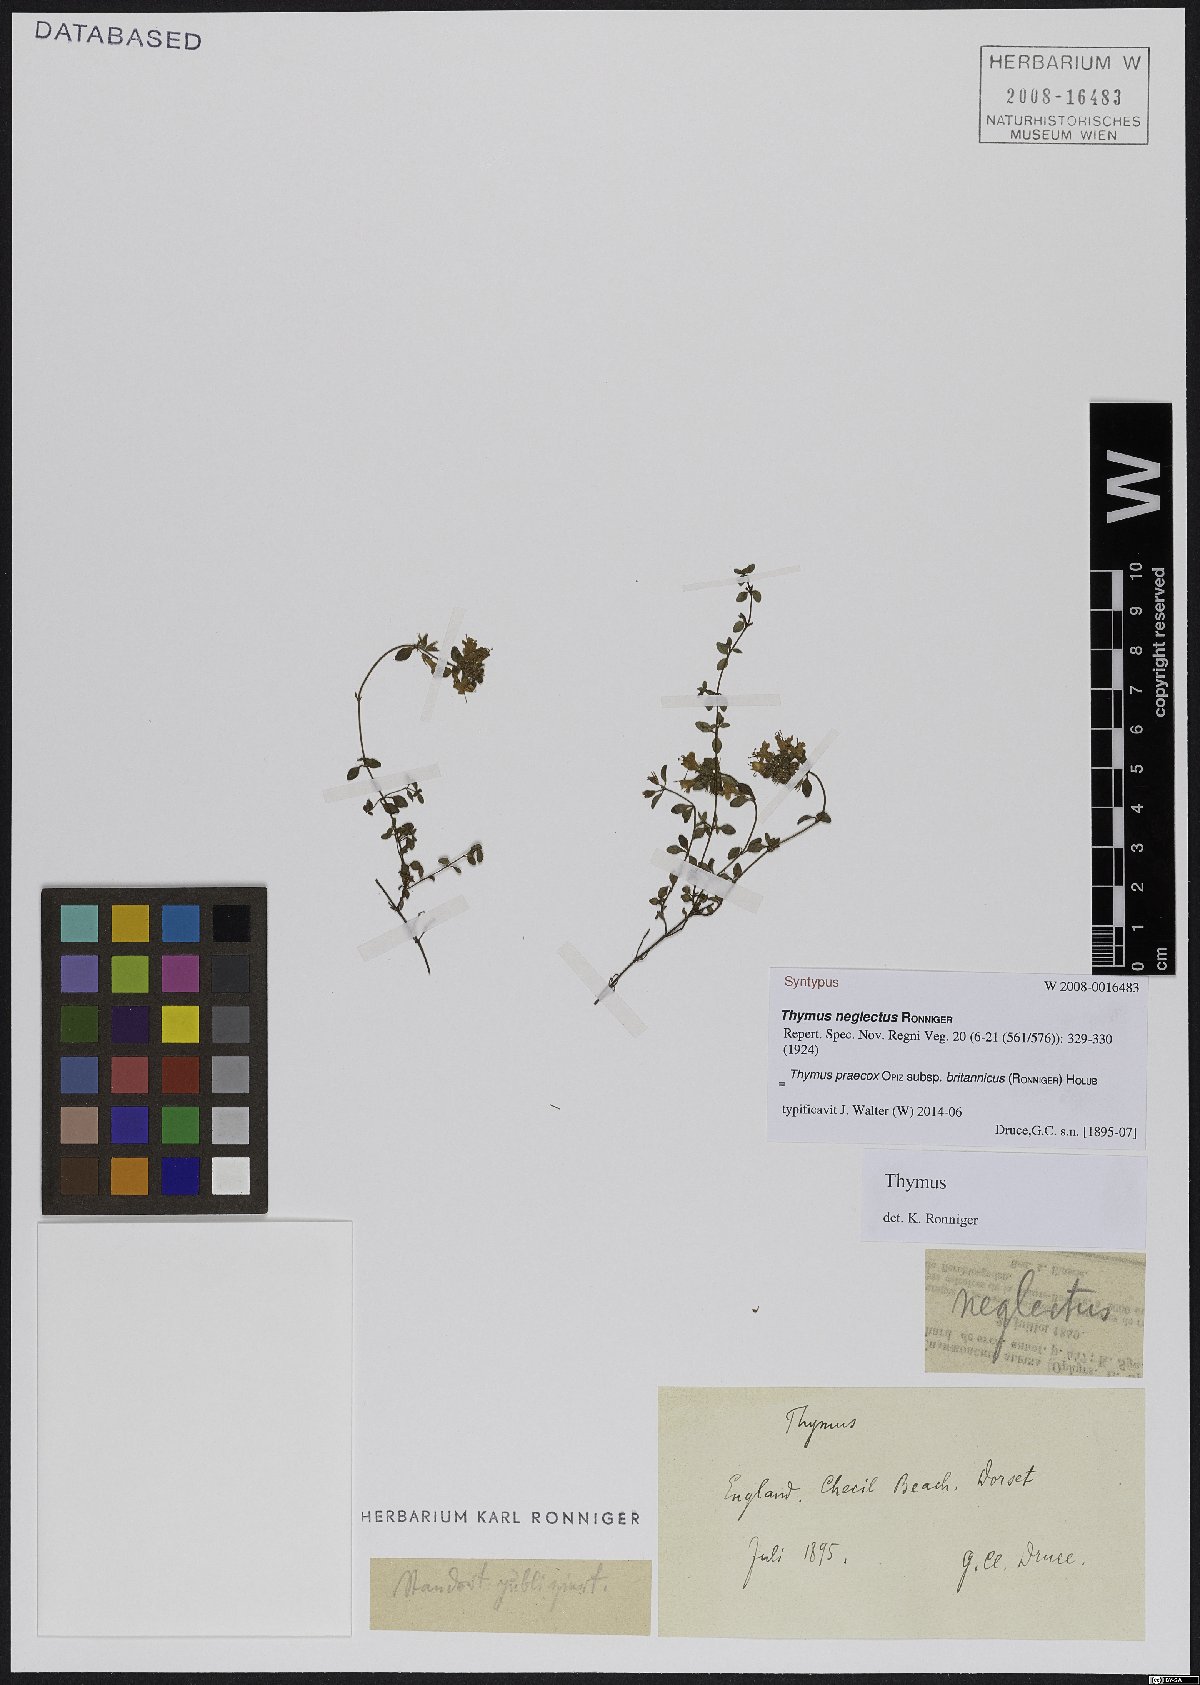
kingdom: Plantae
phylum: Tracheophyta
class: Magnoliopsida
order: Lamiales
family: Lamiaceae
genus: Thymus
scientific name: Thymus praecox
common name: Wild thyme
